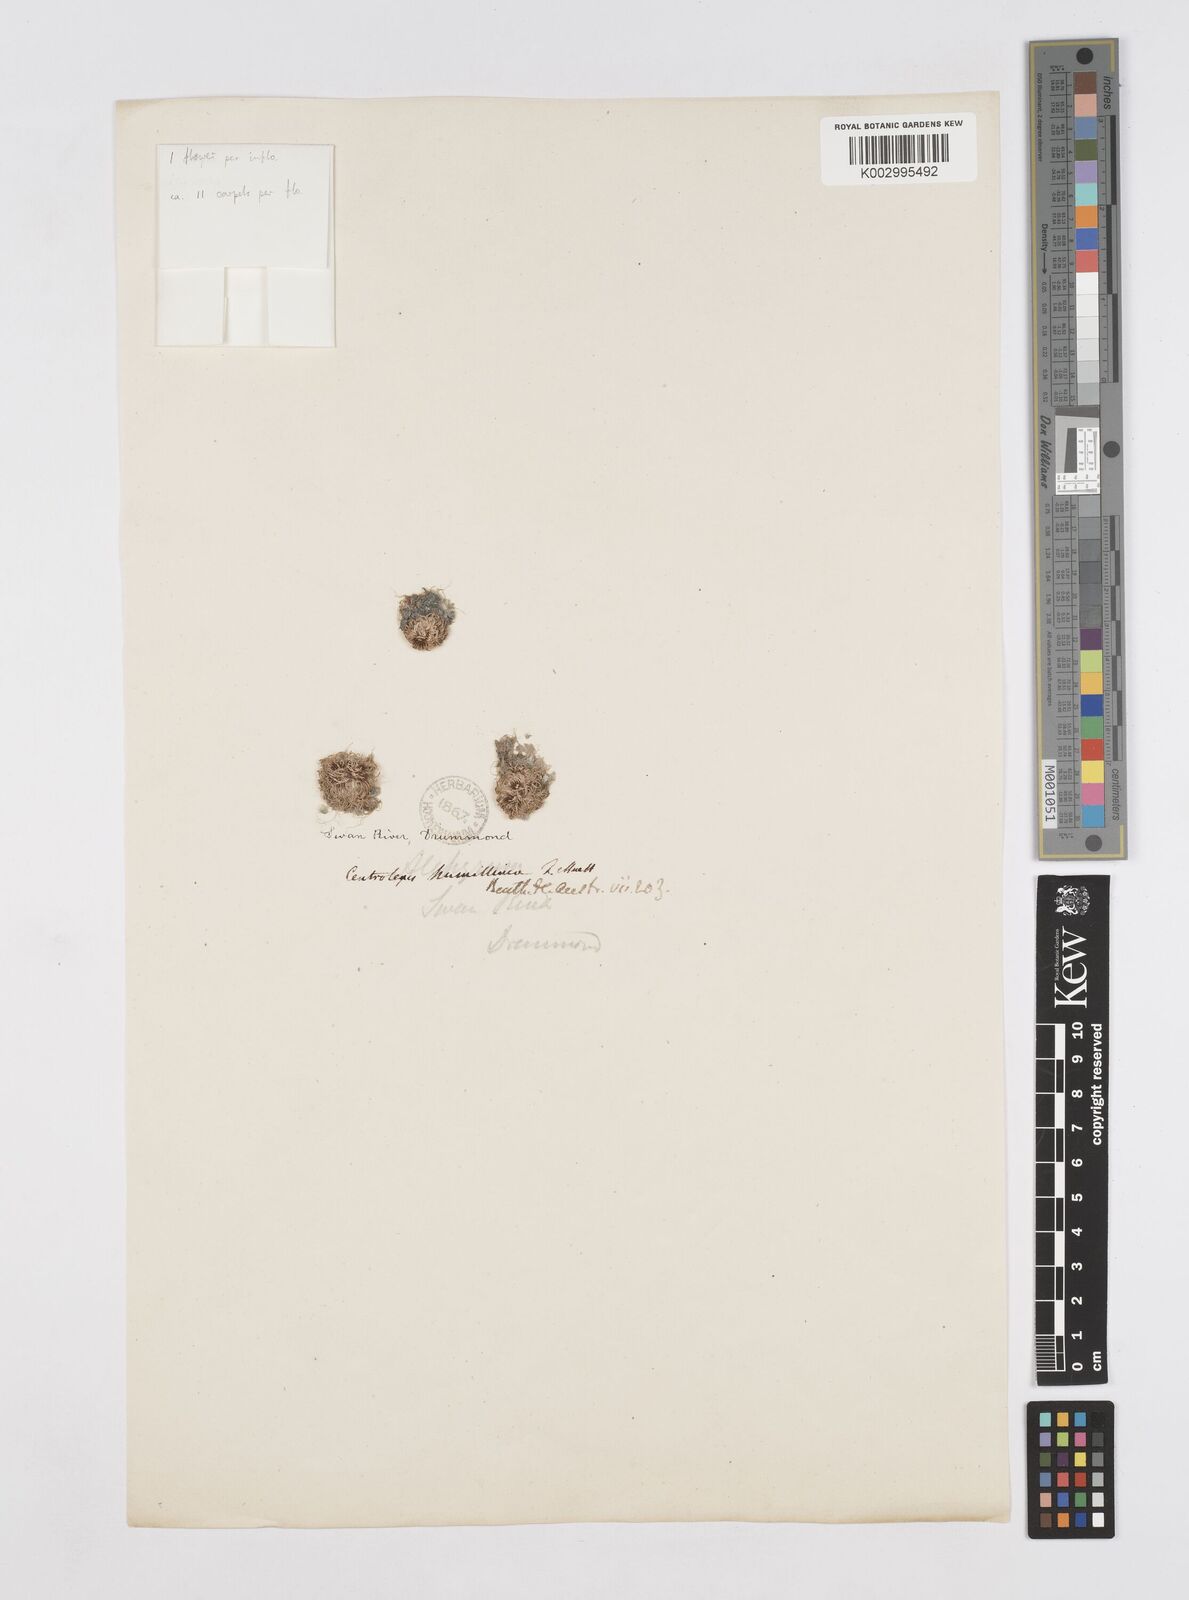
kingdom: Plantae
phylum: Tracheophyta
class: Liliopsida
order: Poales
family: Restionaceae
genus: Centrolepis
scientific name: Centrolepis humillima
